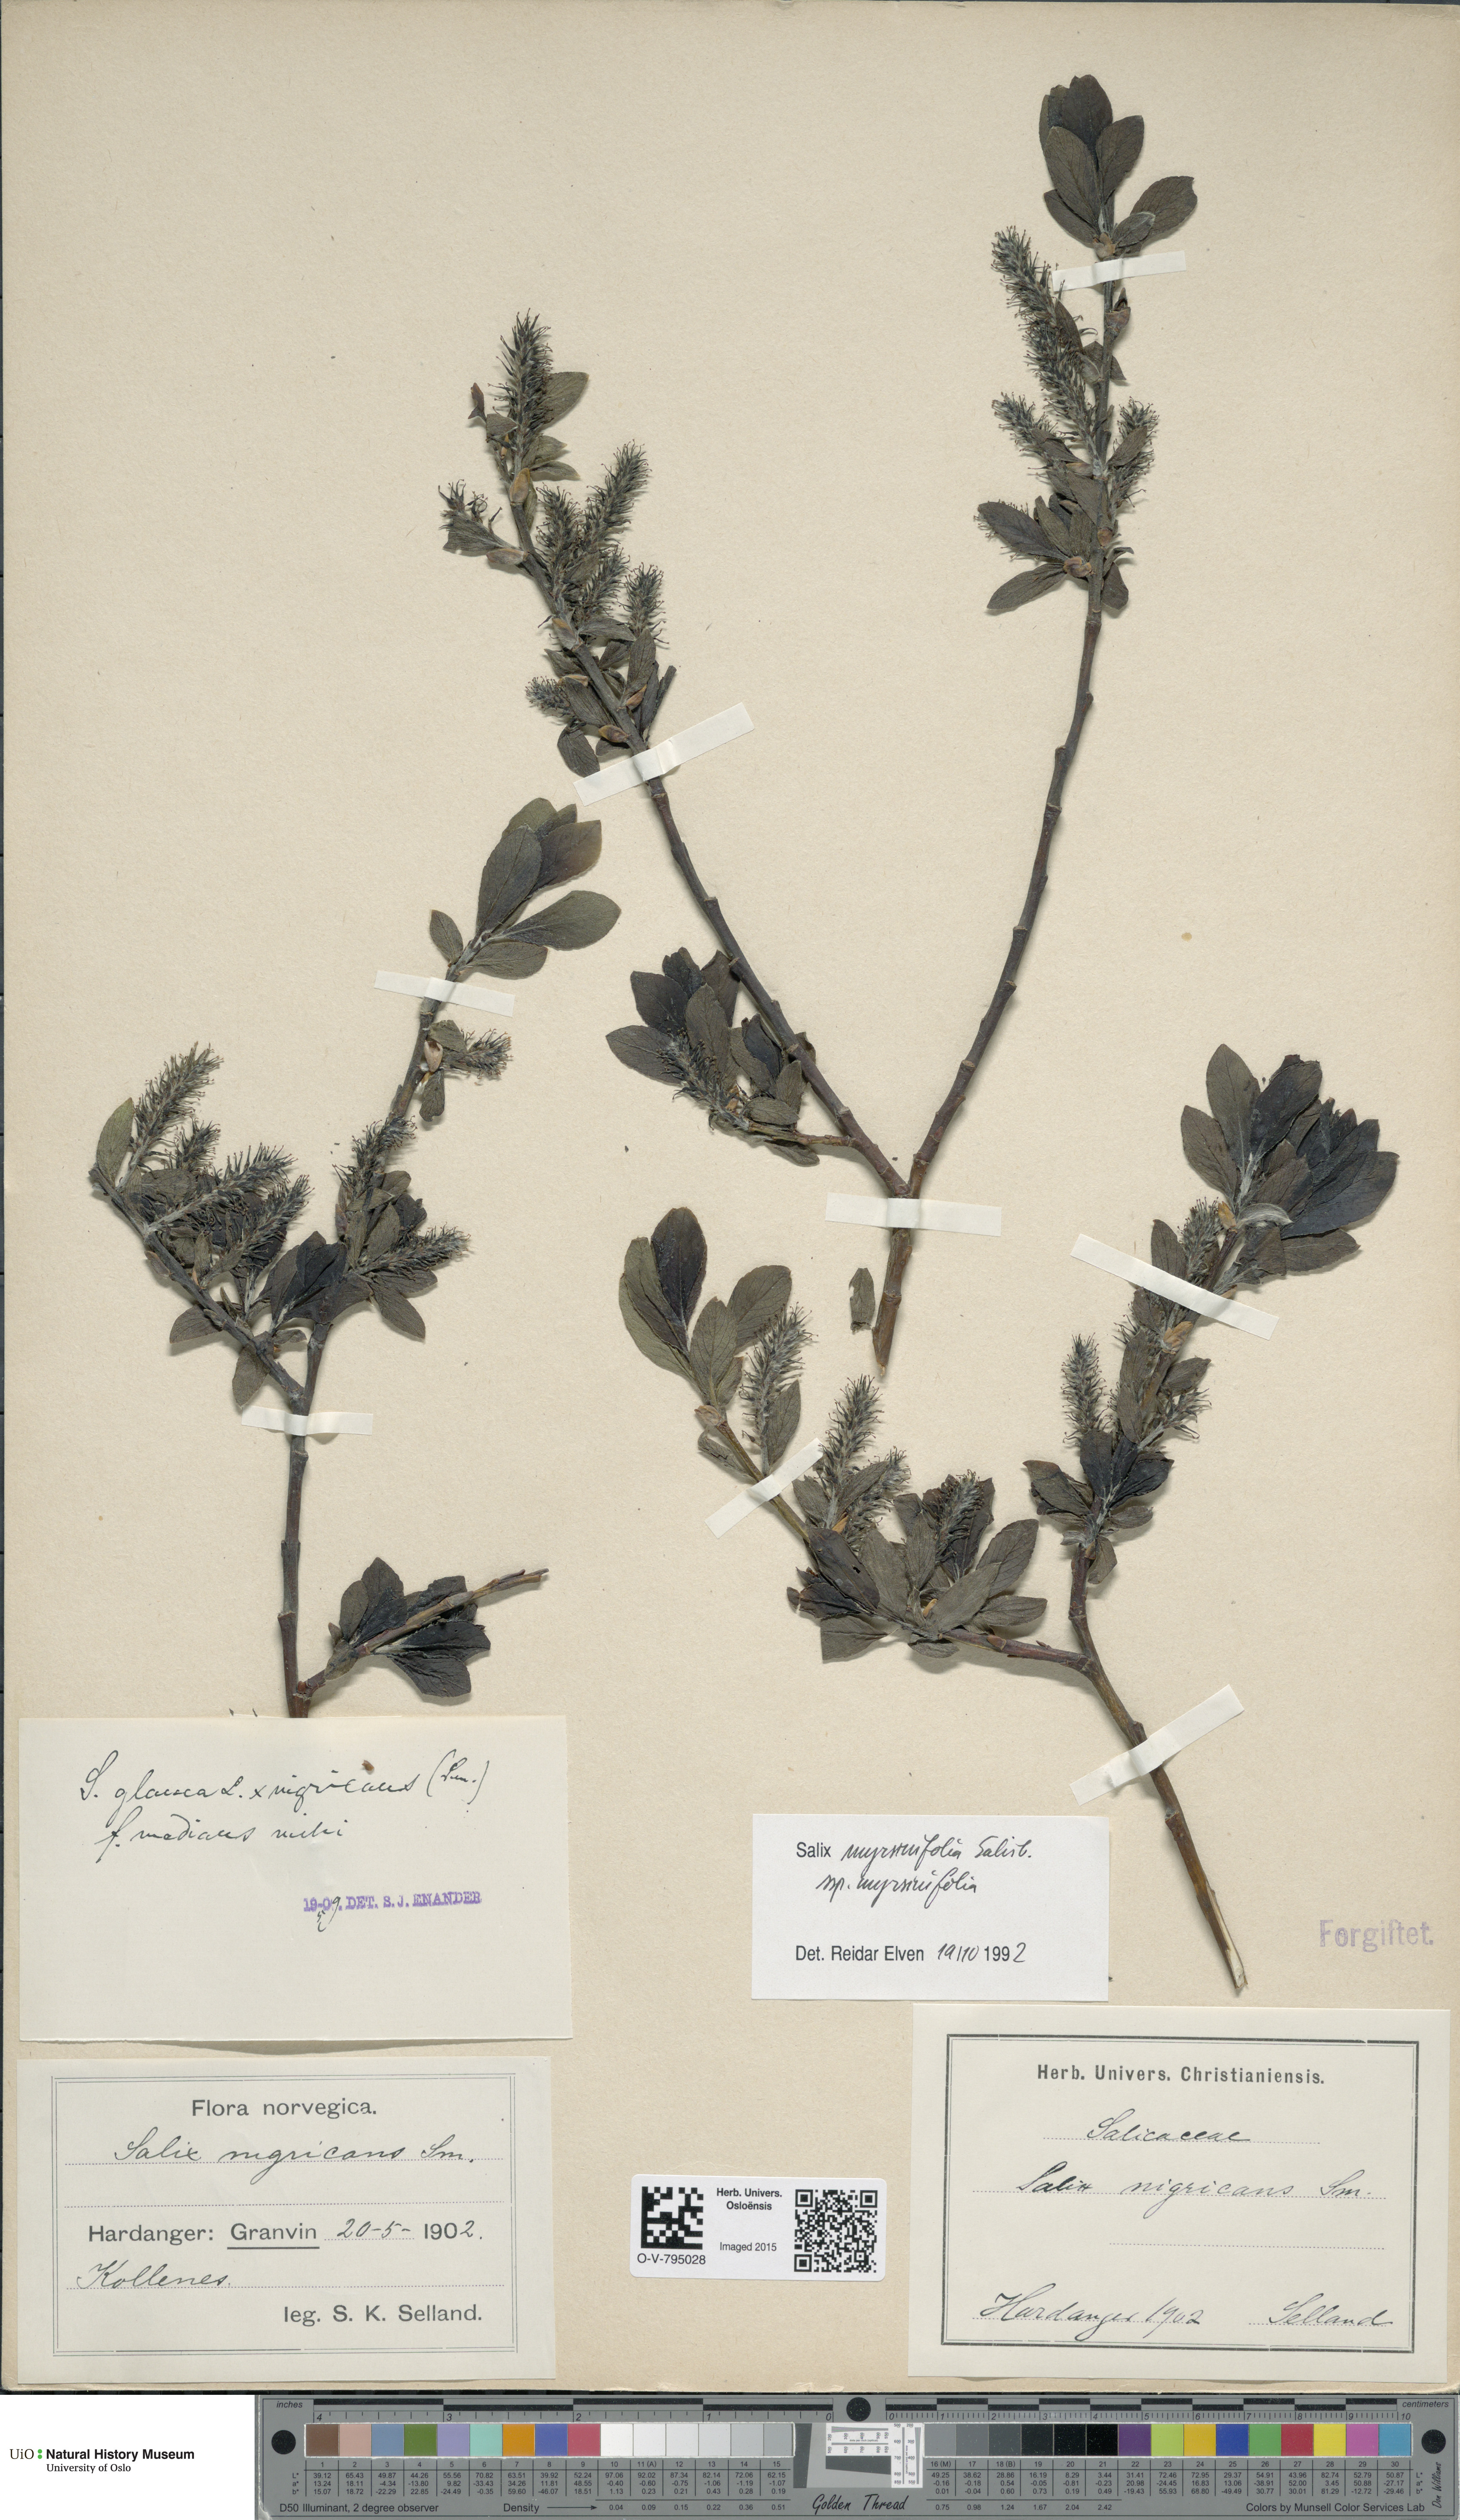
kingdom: Plantae
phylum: Tracheophyta
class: Magnoliopsida
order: Malpighiales
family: Salicaceae
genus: Salix
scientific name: Salix myrsinifolia
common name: Dark-leaved willow
